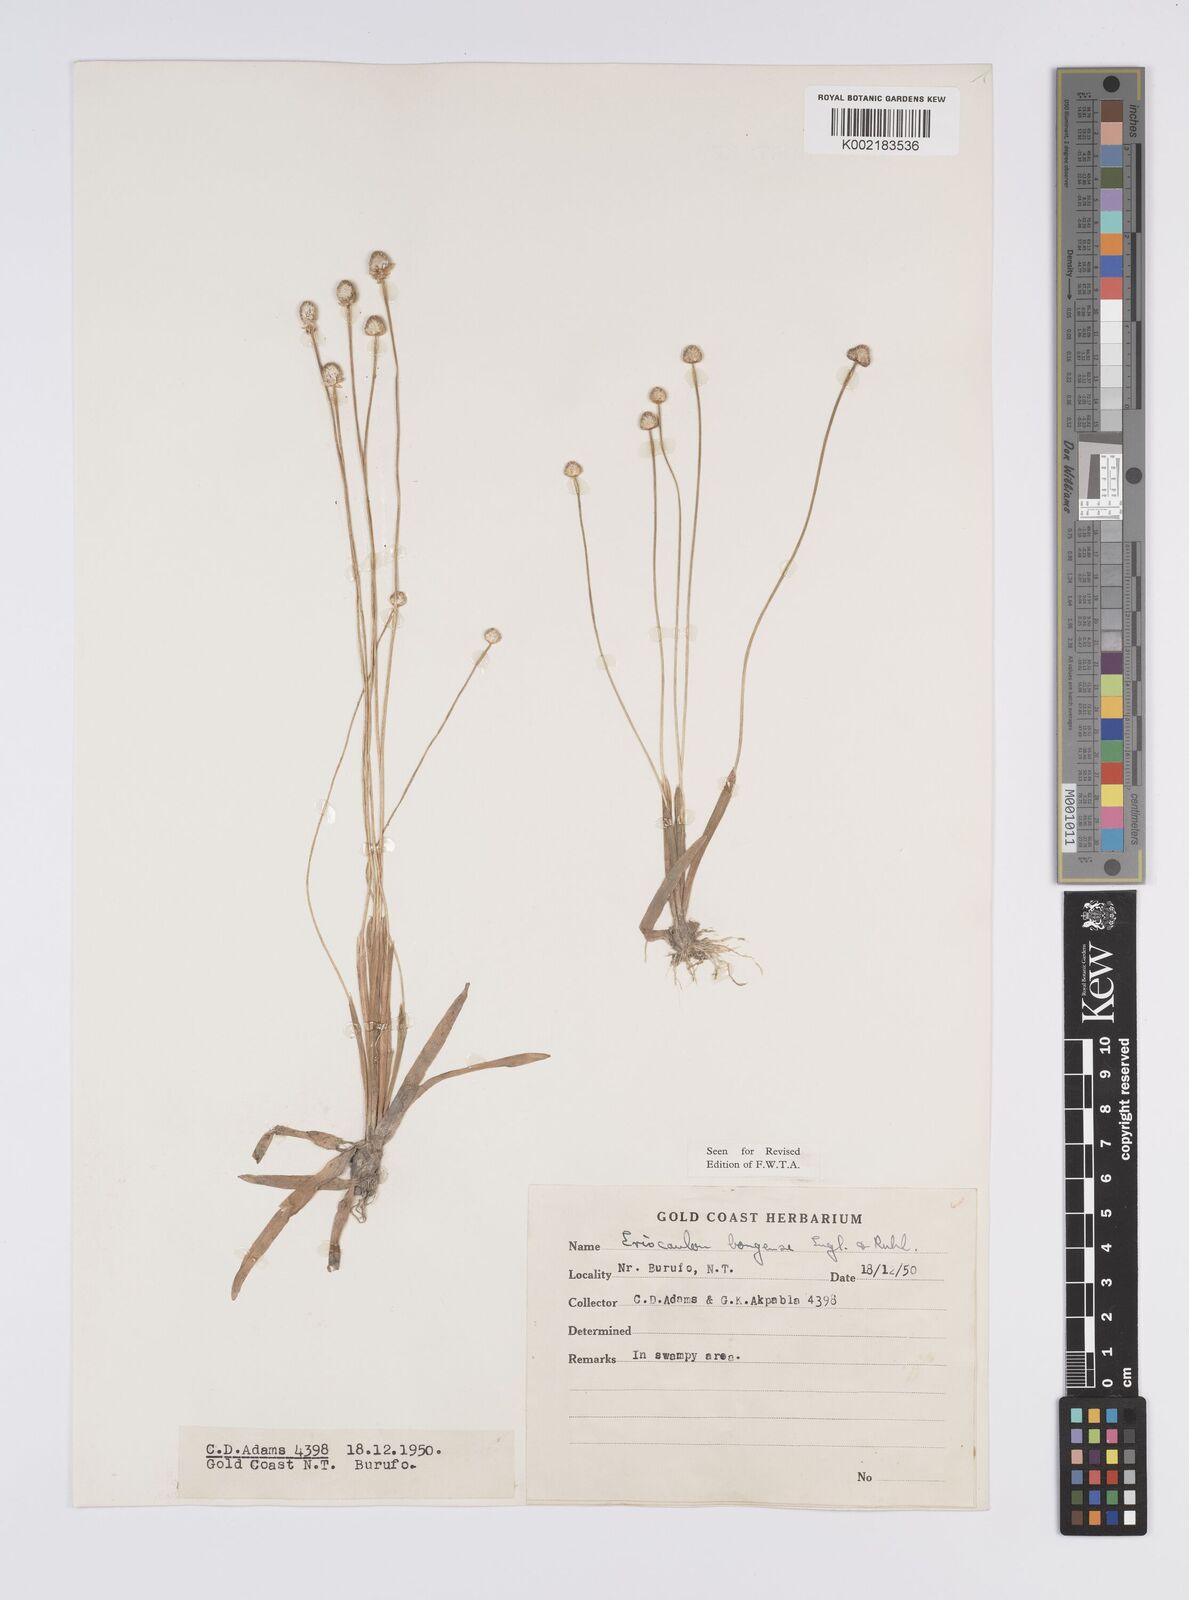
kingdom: Plantae
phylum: Tracheophyta
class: Liliopsida
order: Poales
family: Eriocaulaceae
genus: Eriocaulon
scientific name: Eriocaulon bongense
